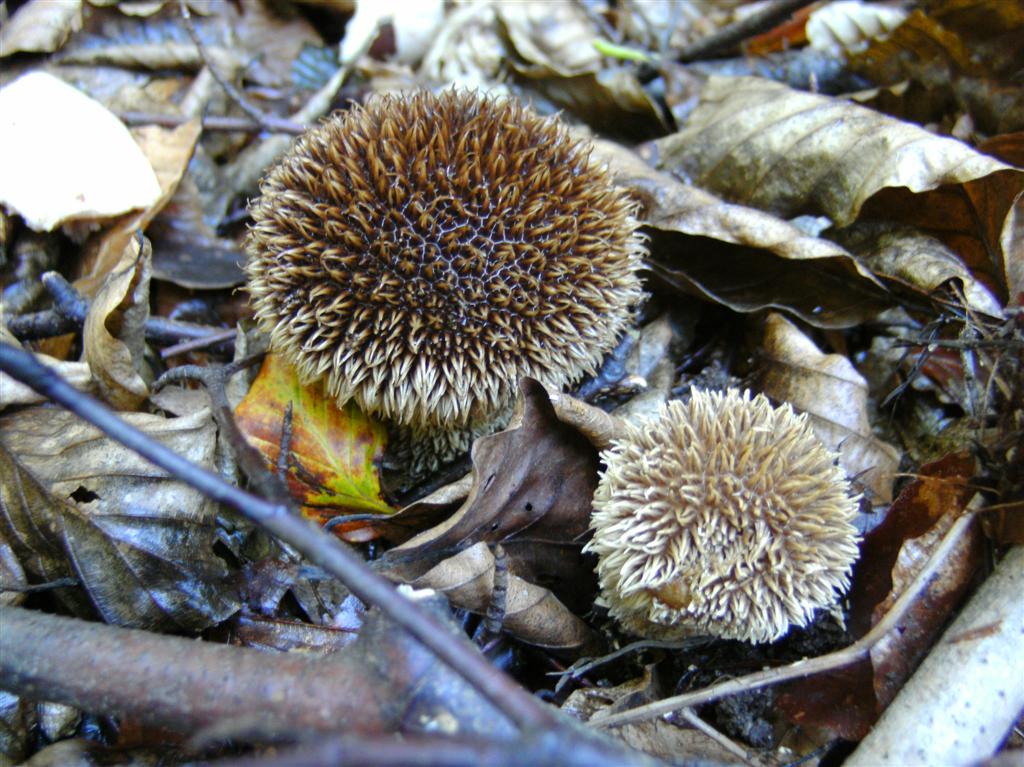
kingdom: Fungi
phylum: Basidiomycota
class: Agaricomycetes
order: Agaricales
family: Lycoperdaceae
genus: Lycoperdon
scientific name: Lycoperdon echinatum
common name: pindsvine-støvbold
